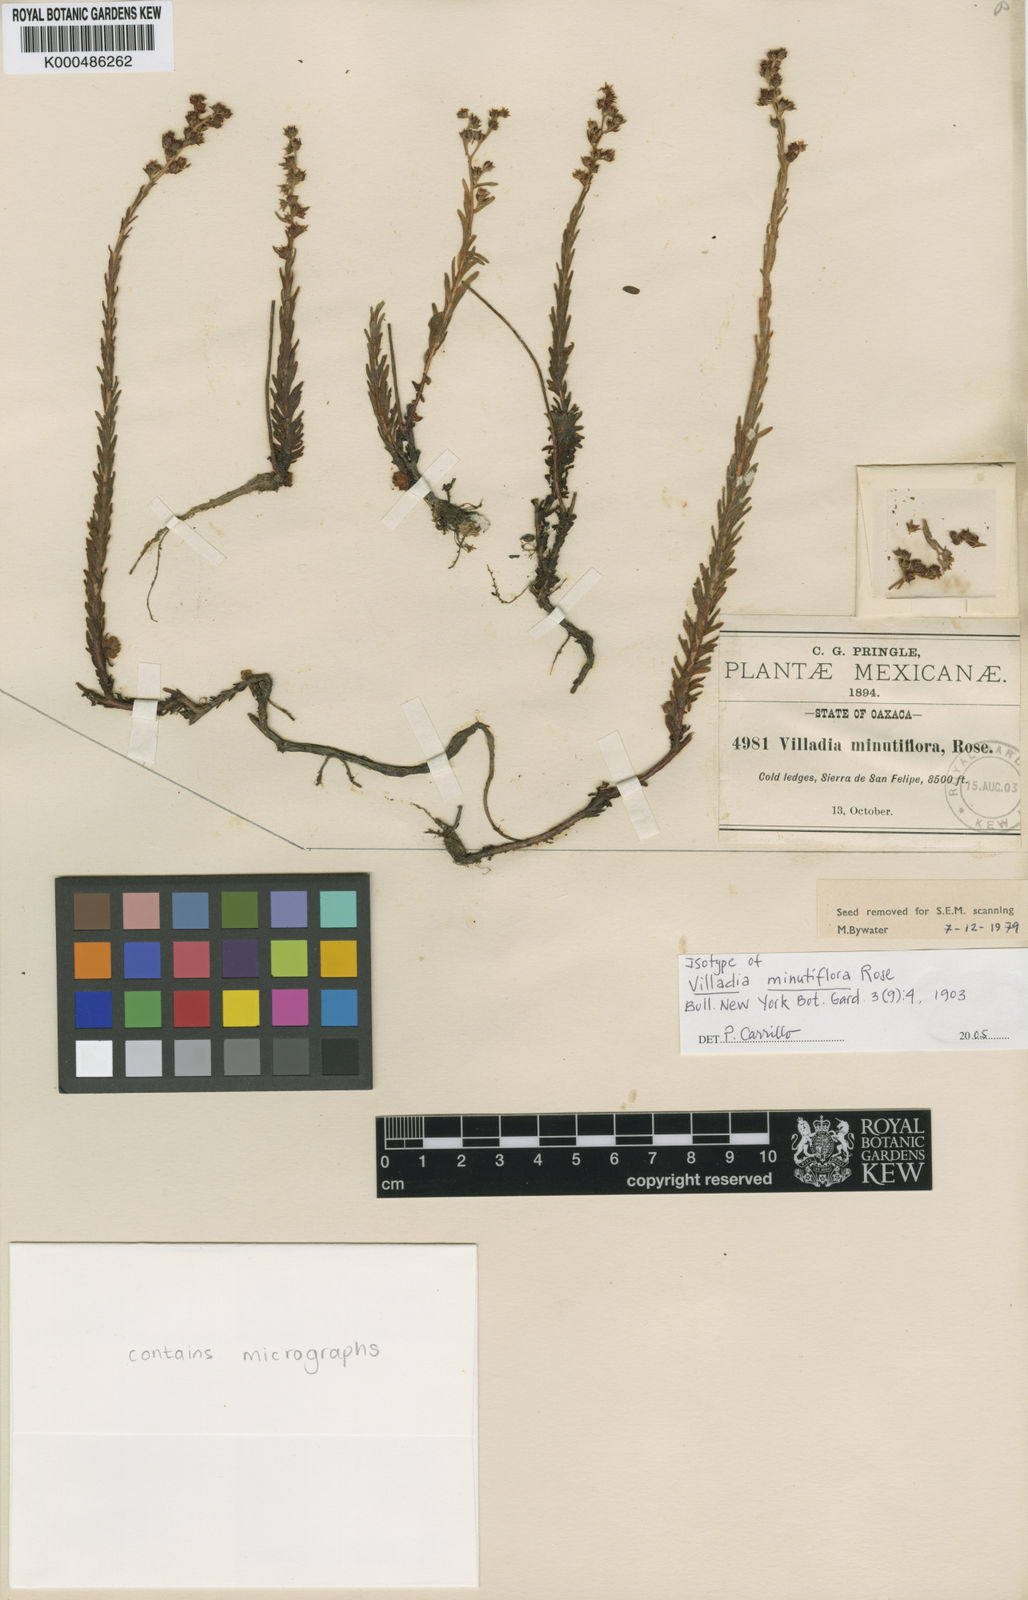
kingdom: Plantae
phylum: Tracheophyta
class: Magnoliopsida
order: Saxifragales
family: Crassulaceae
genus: Villadia
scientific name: Villadia minutiflora
